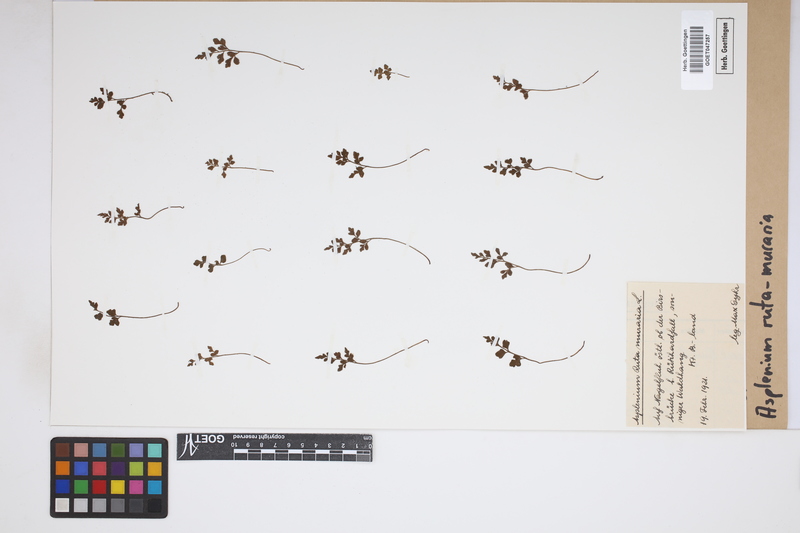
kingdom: Plantae
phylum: Tracheophyta
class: Polypodiopsida
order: Polypodiales
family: Aspleniaceae
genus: Asplenium
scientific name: Asplenium ruta-muraria
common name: Wall-rue
